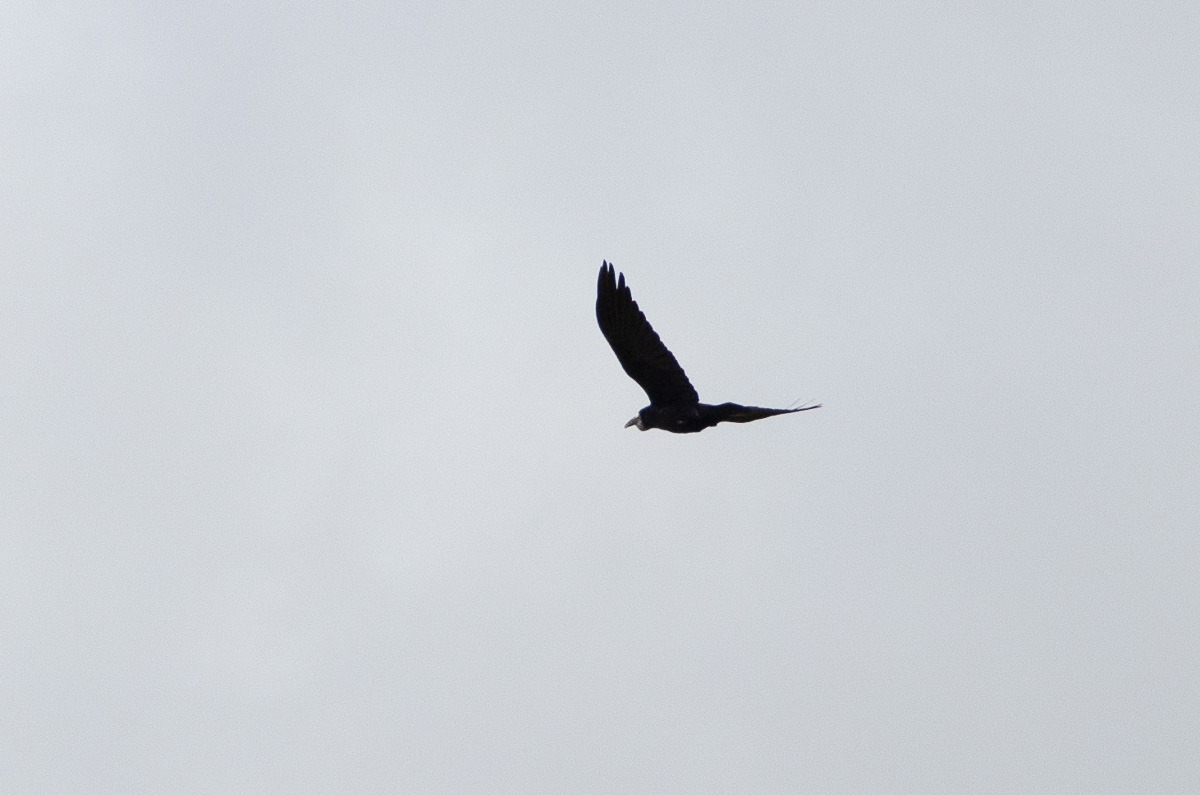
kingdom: Animalia
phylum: Chordata
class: Aves
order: Passeriformes
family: Corvidae
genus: Corvus
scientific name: Corvus frugilegus
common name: Råge
